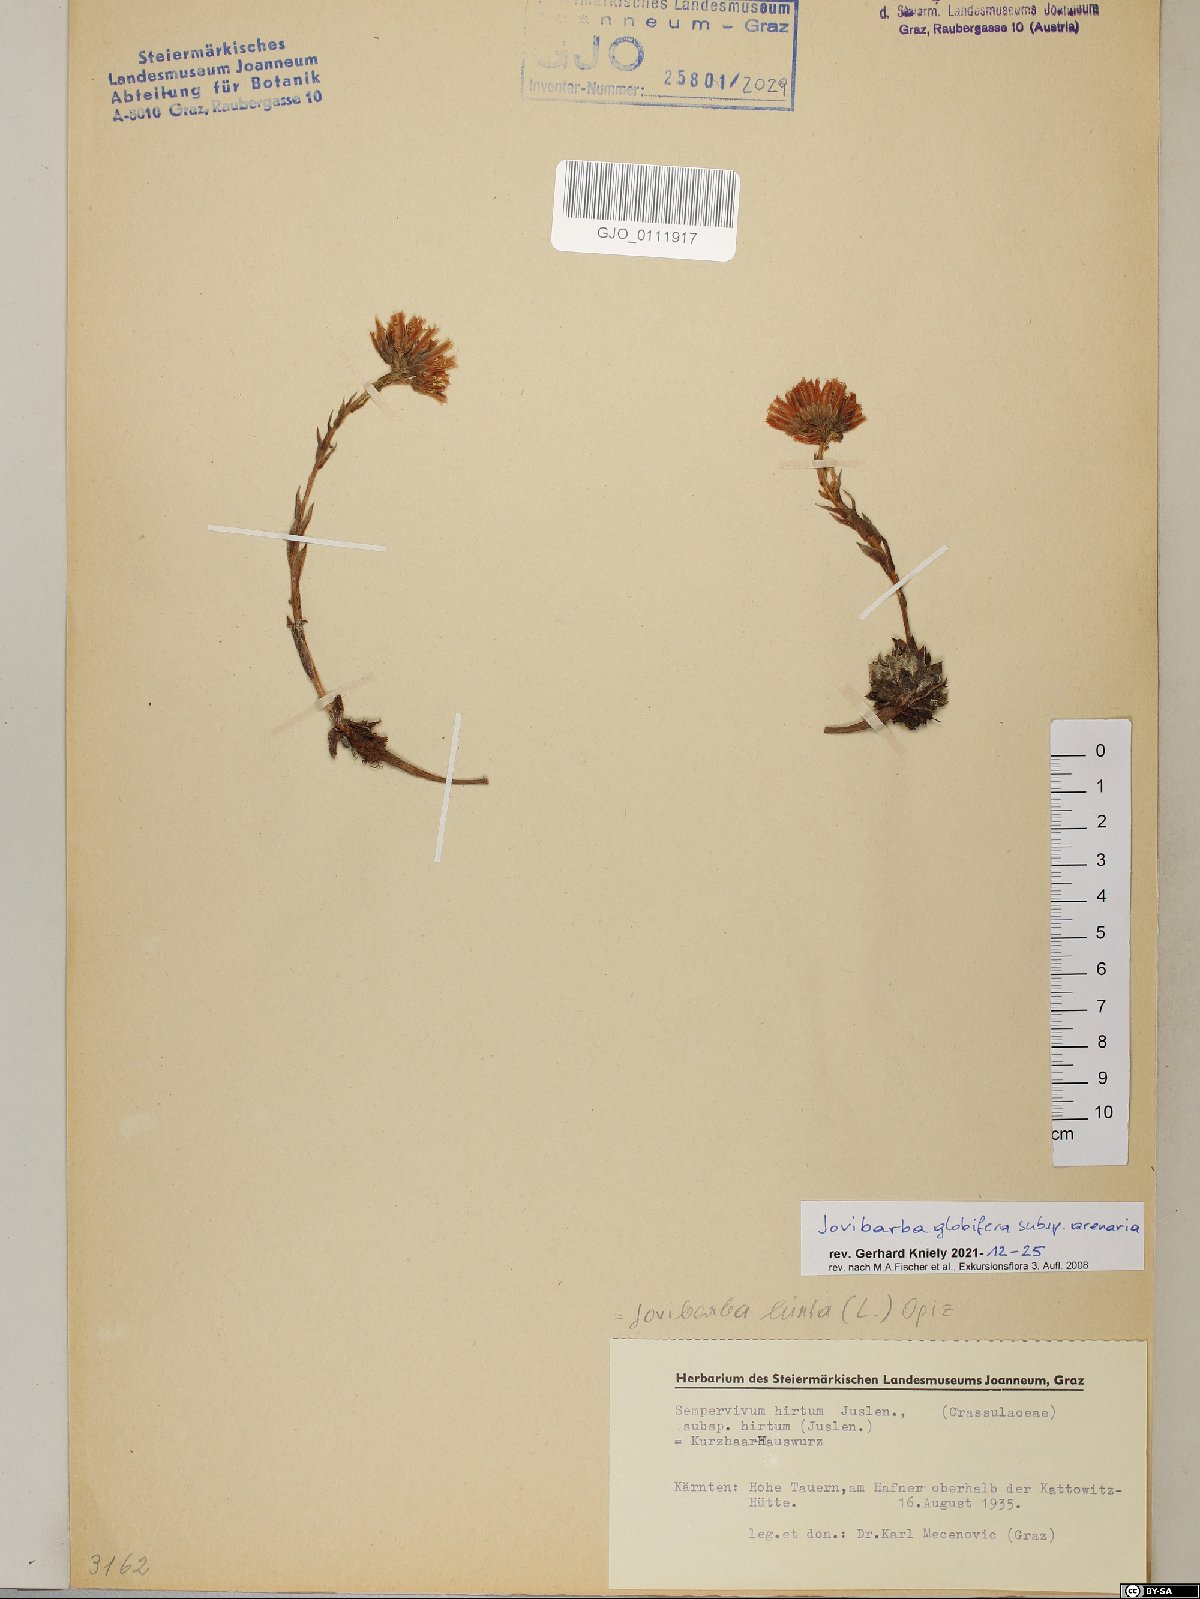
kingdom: Plantae
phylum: Tracheophyta
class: Magnoliopsida
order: Saxifragales
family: Crassulaceae
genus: Sempervivum
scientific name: Sempervivum globiferum
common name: Rolling hen-and-chicks
